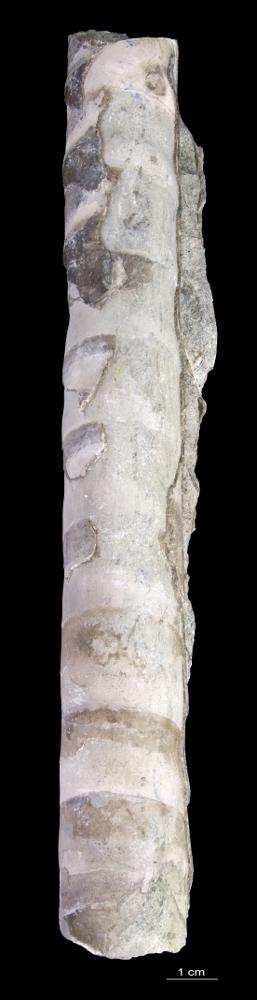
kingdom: Animalia
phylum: Mollusca
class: Cephalopoda
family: Estonioceratidae
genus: Estonioceras
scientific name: Estonioceras
